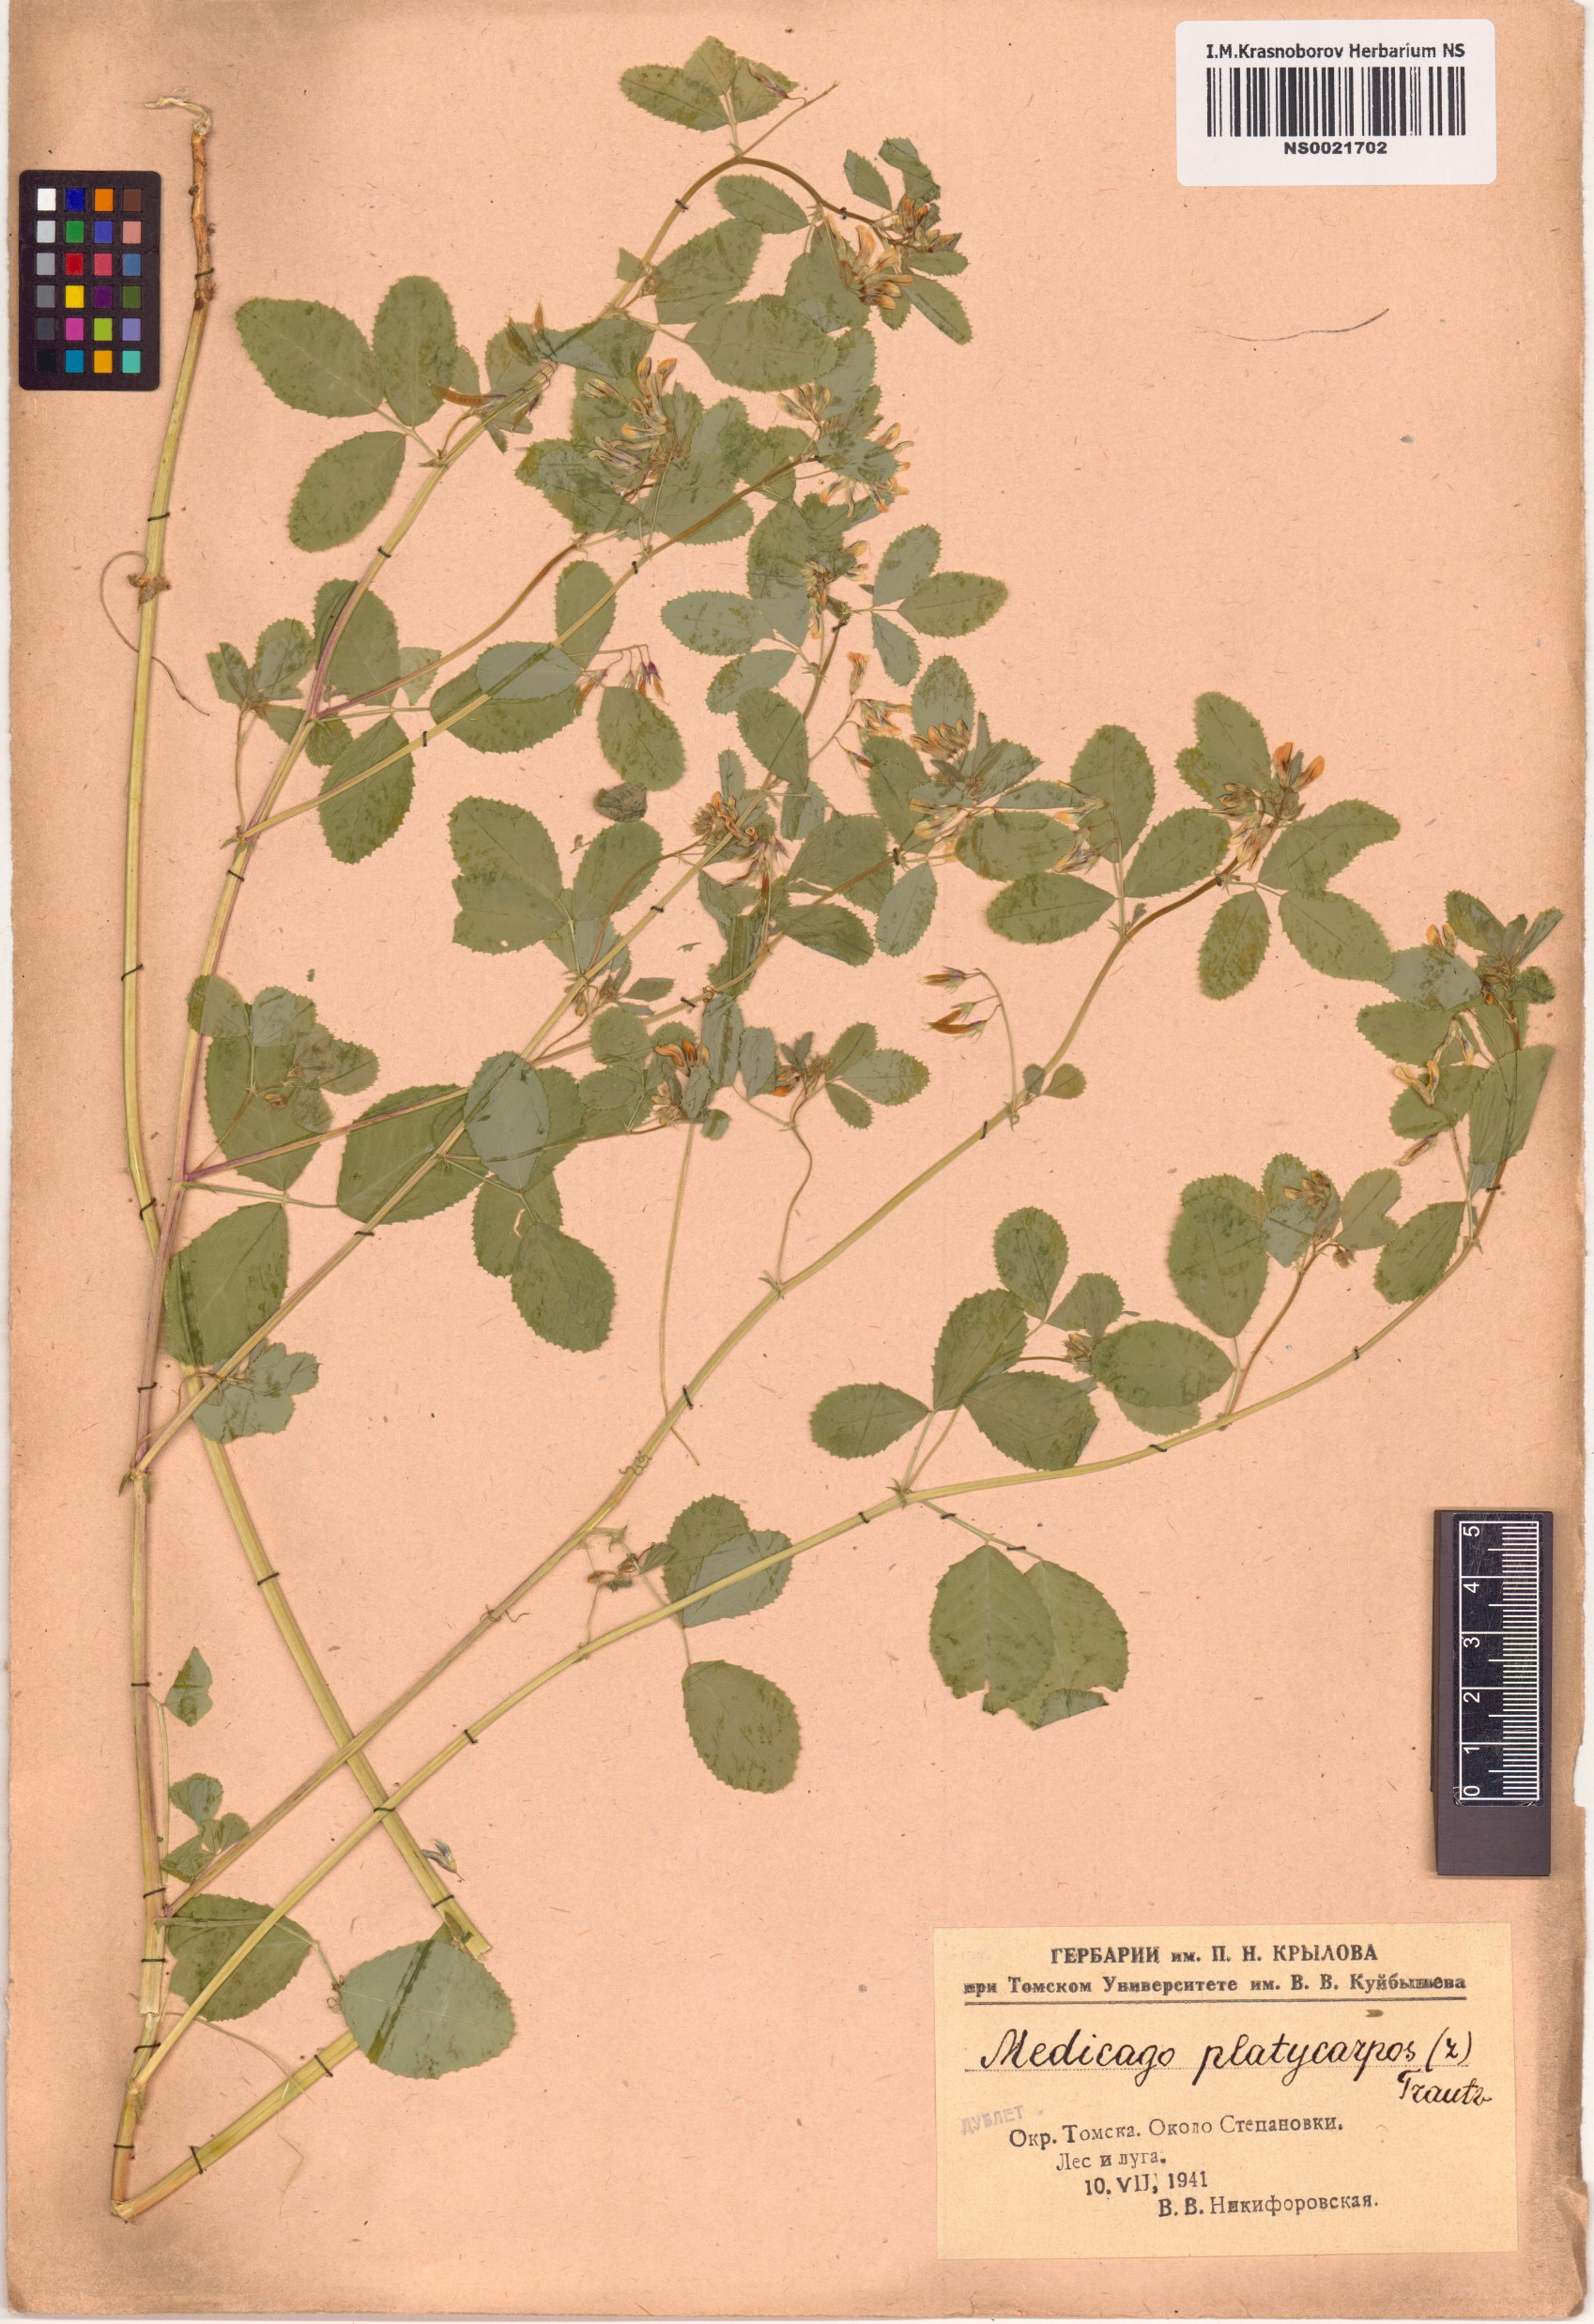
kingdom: Plantae
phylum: Tracheophyta
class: Magnoliopsida
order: Fabales
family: Fabaceae
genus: Medicago
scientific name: Medicago platycarpos
